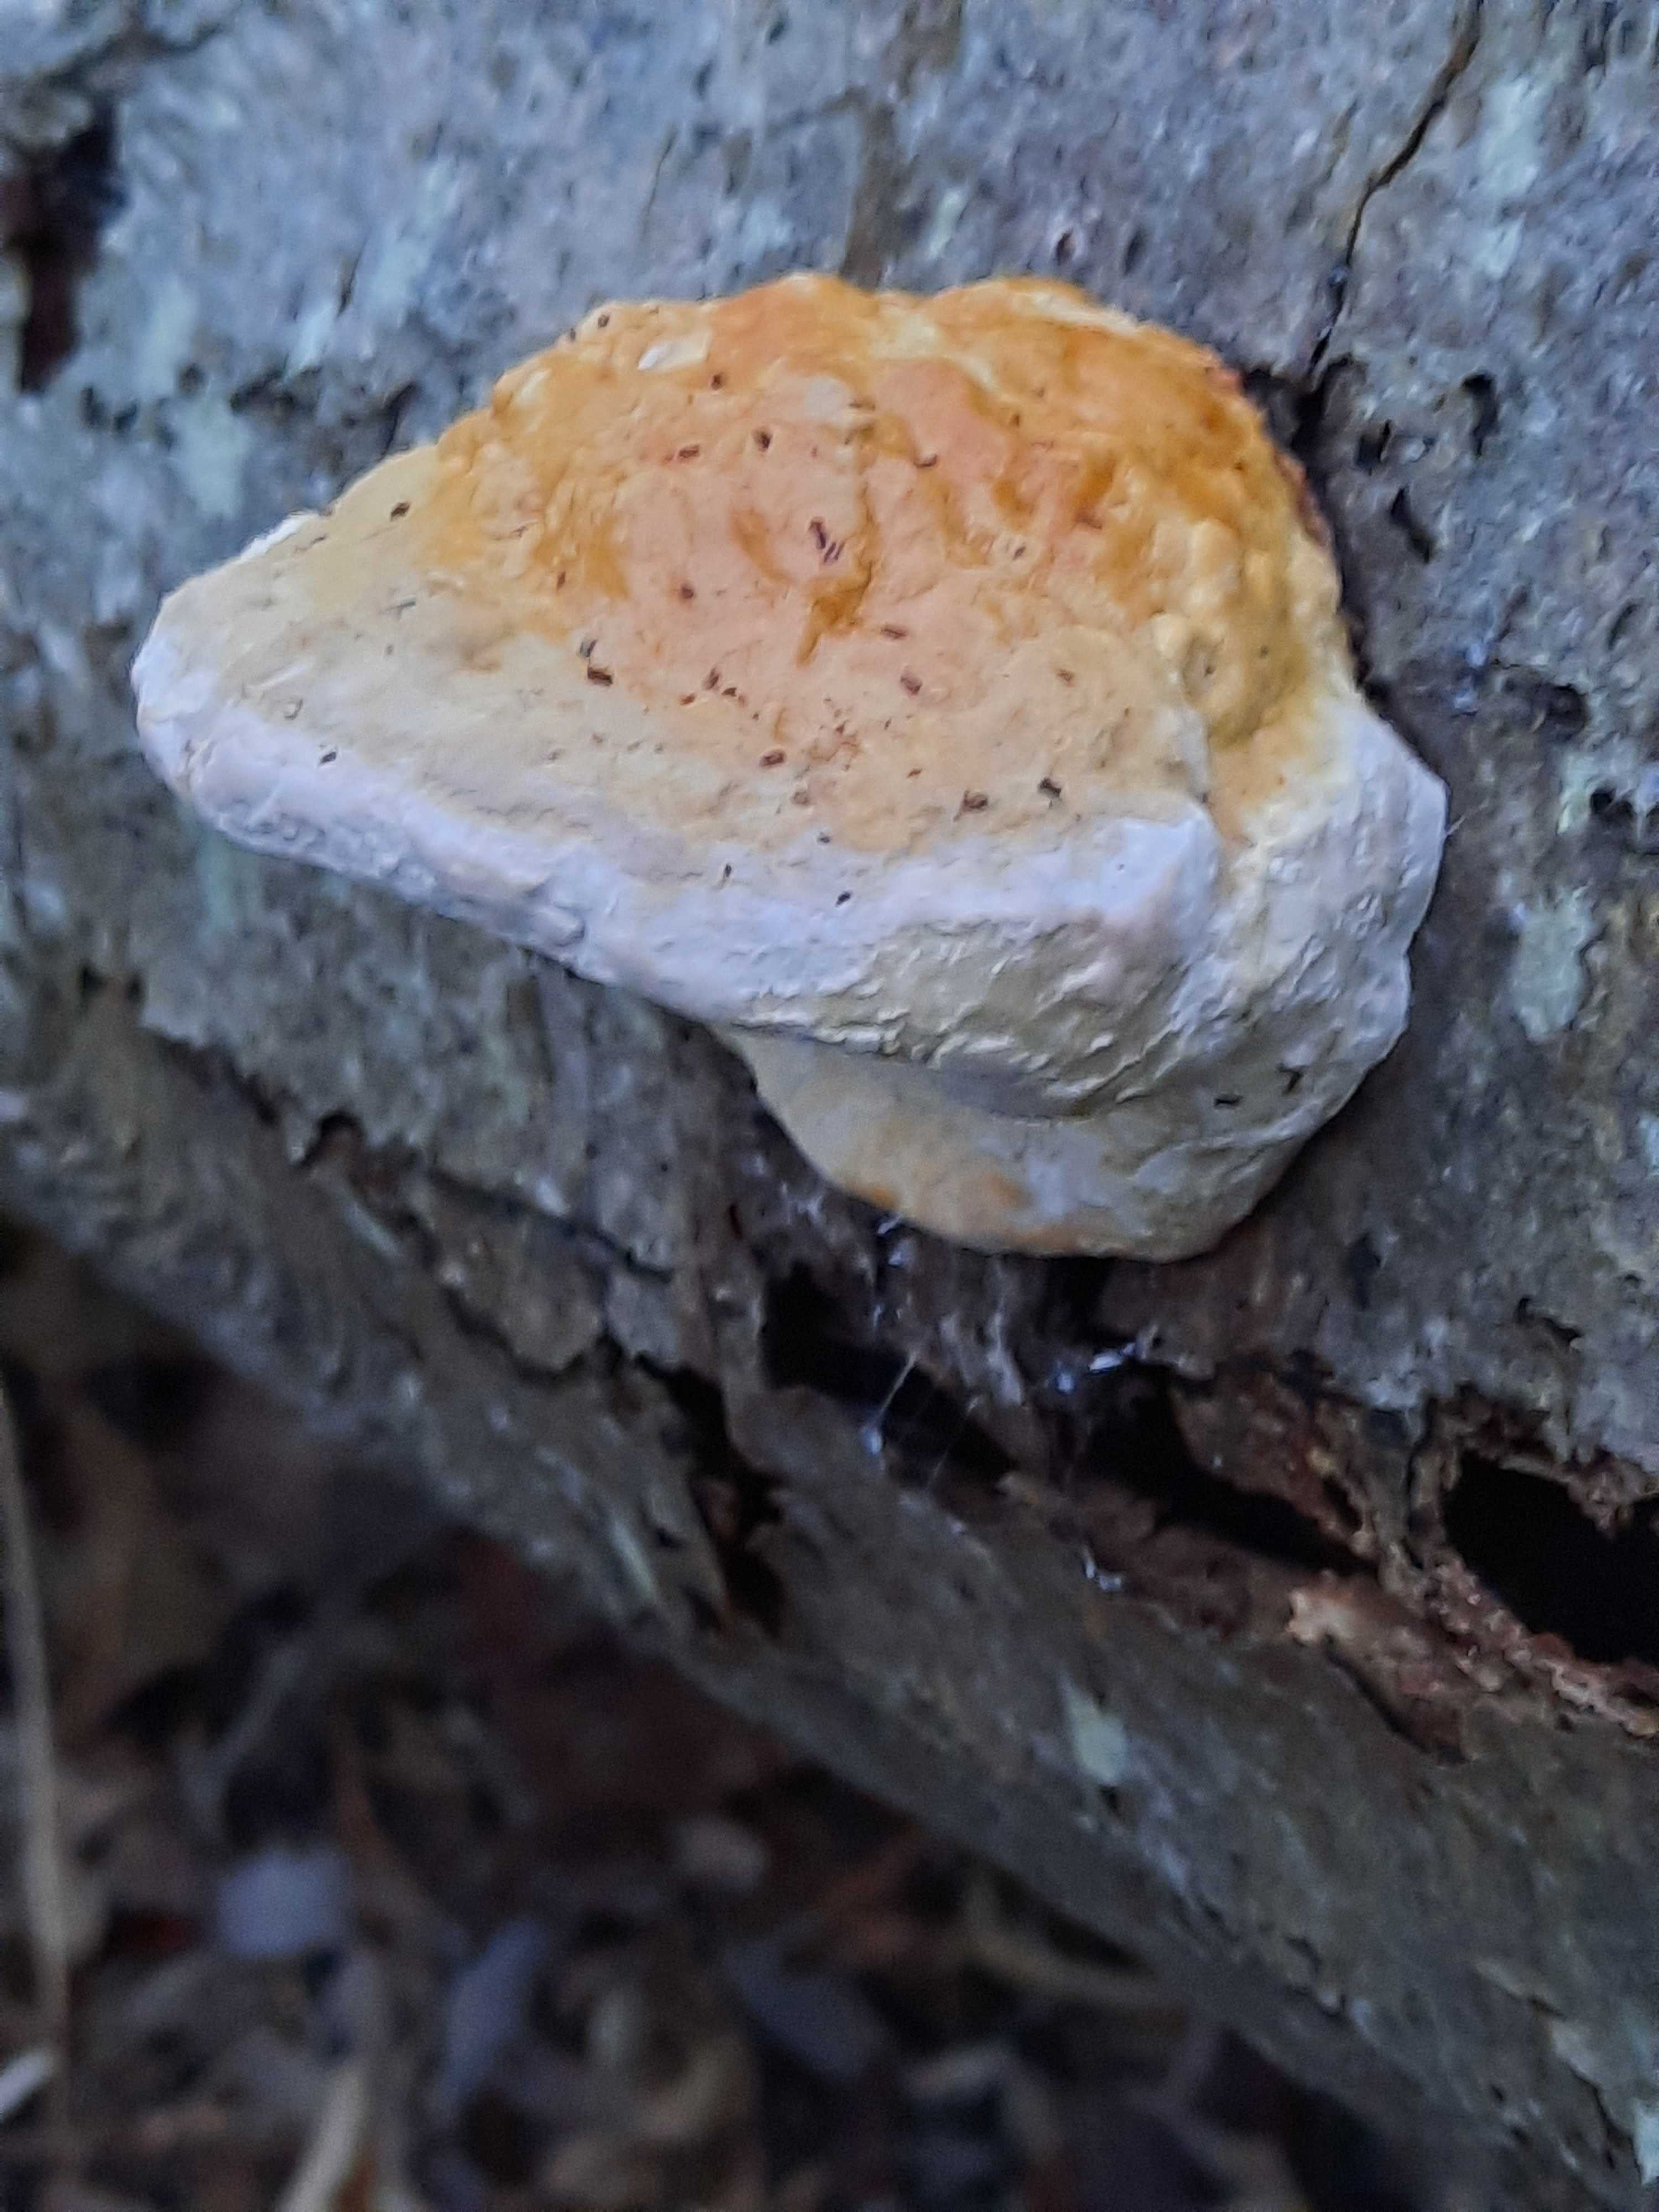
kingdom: Fungi
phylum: Basidiomycota
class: Agaricomycetes
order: Polyporales
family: Fomitopsidaceae
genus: Fomitopsis
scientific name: Fomitopsis pinicola
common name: randbæltet hovporesvamp
